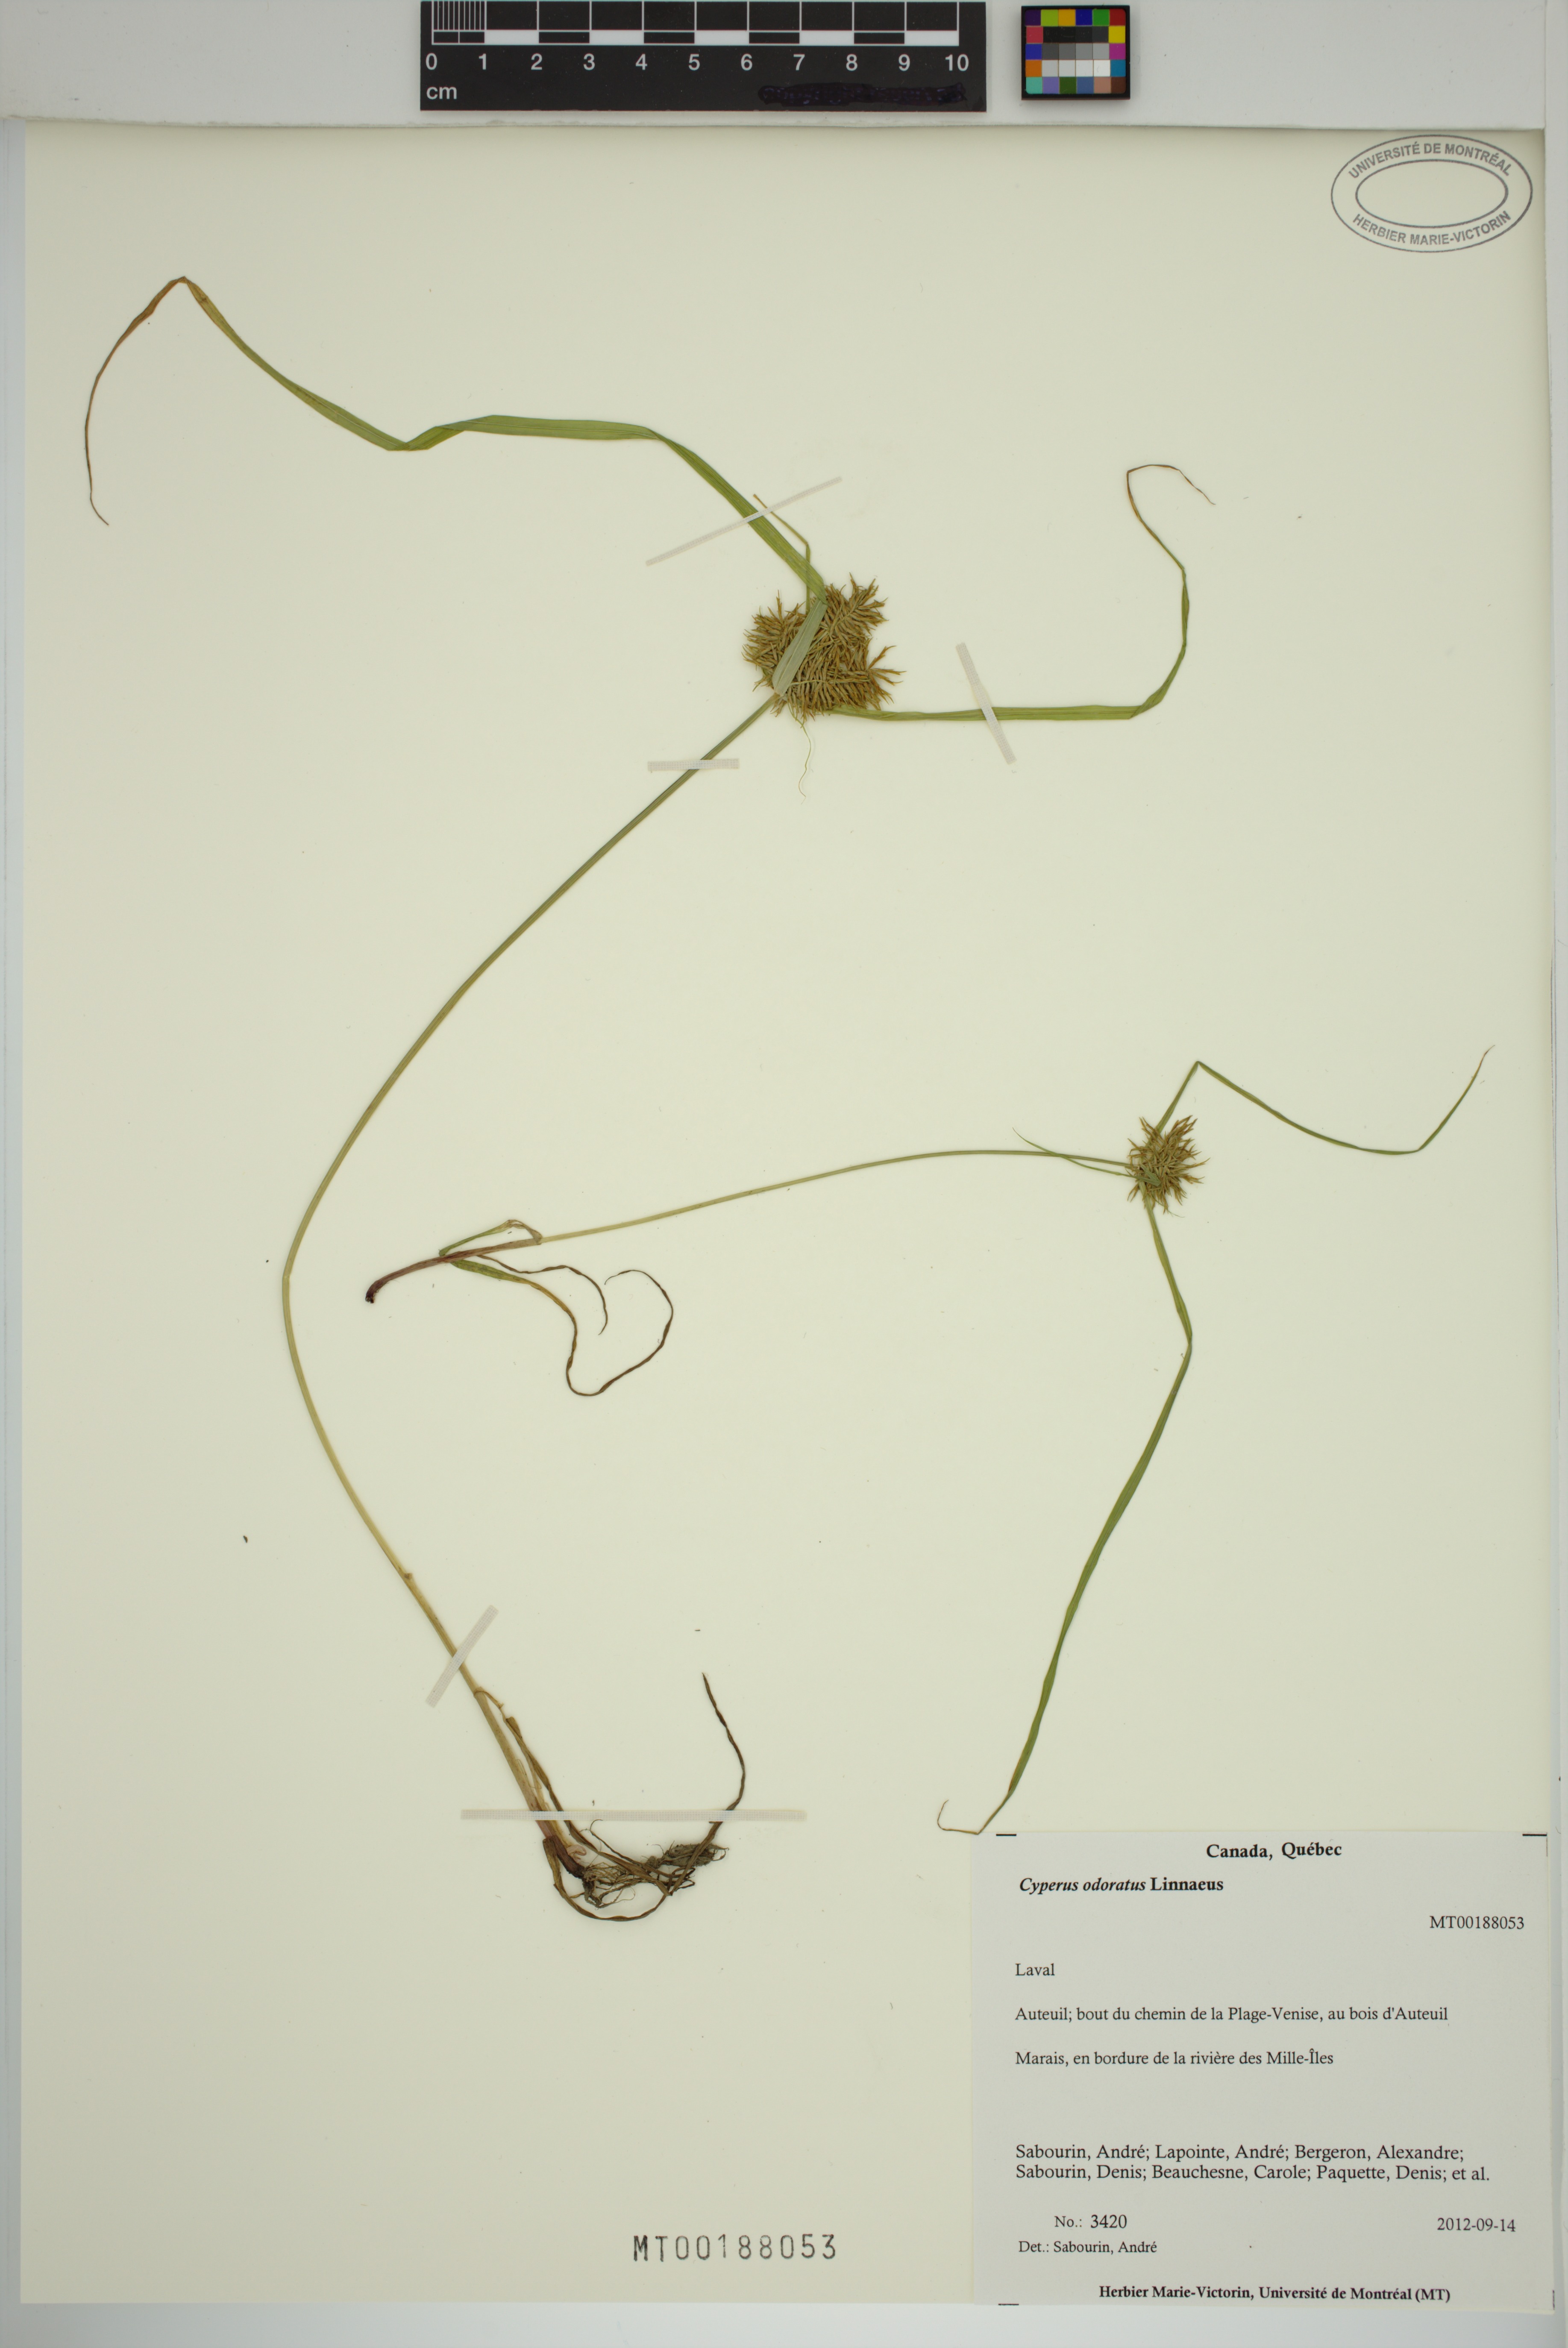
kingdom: Plantae
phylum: Tracheophyta
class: Liliopsida
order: Poales
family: Cyperaceae
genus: Cyperus
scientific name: Cyperus odoratus
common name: Fragrant flatsedge
